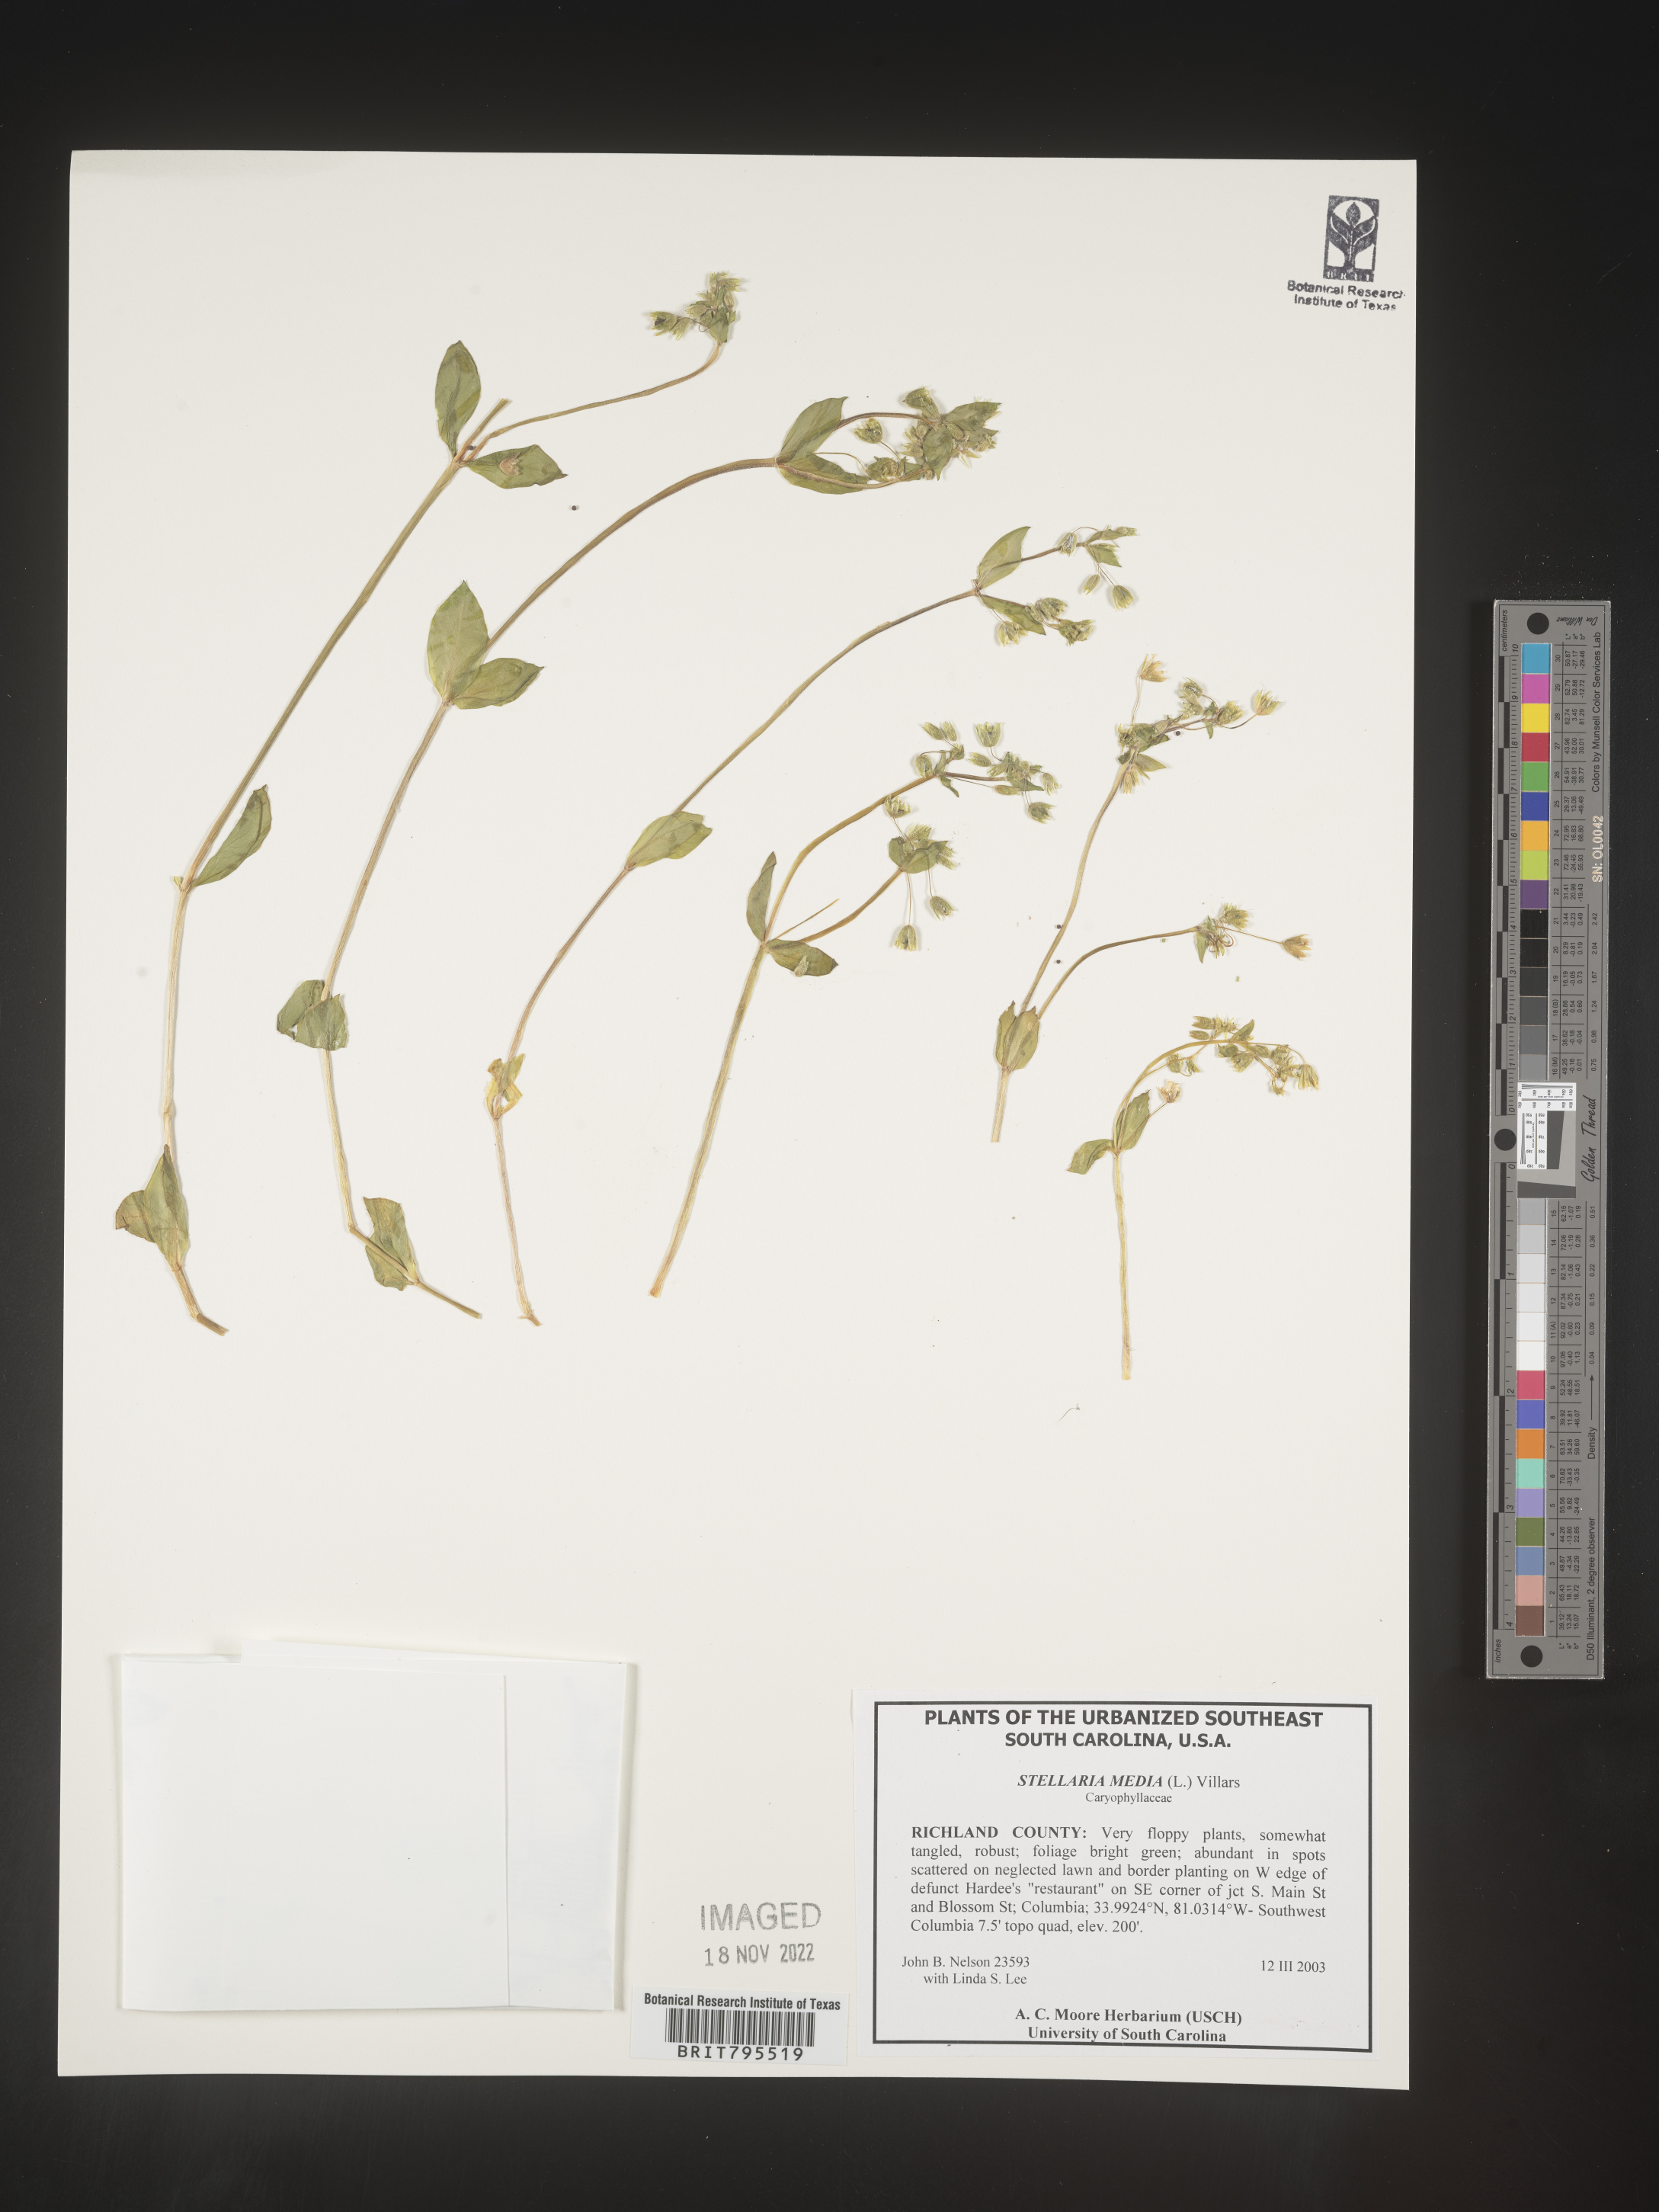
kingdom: Plantae
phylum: Tracheophyta
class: Magnoliopsida
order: Caryophyllales
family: Caryophyllaceae
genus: Stellaria
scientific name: Stellaria media
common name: Common chickweed
